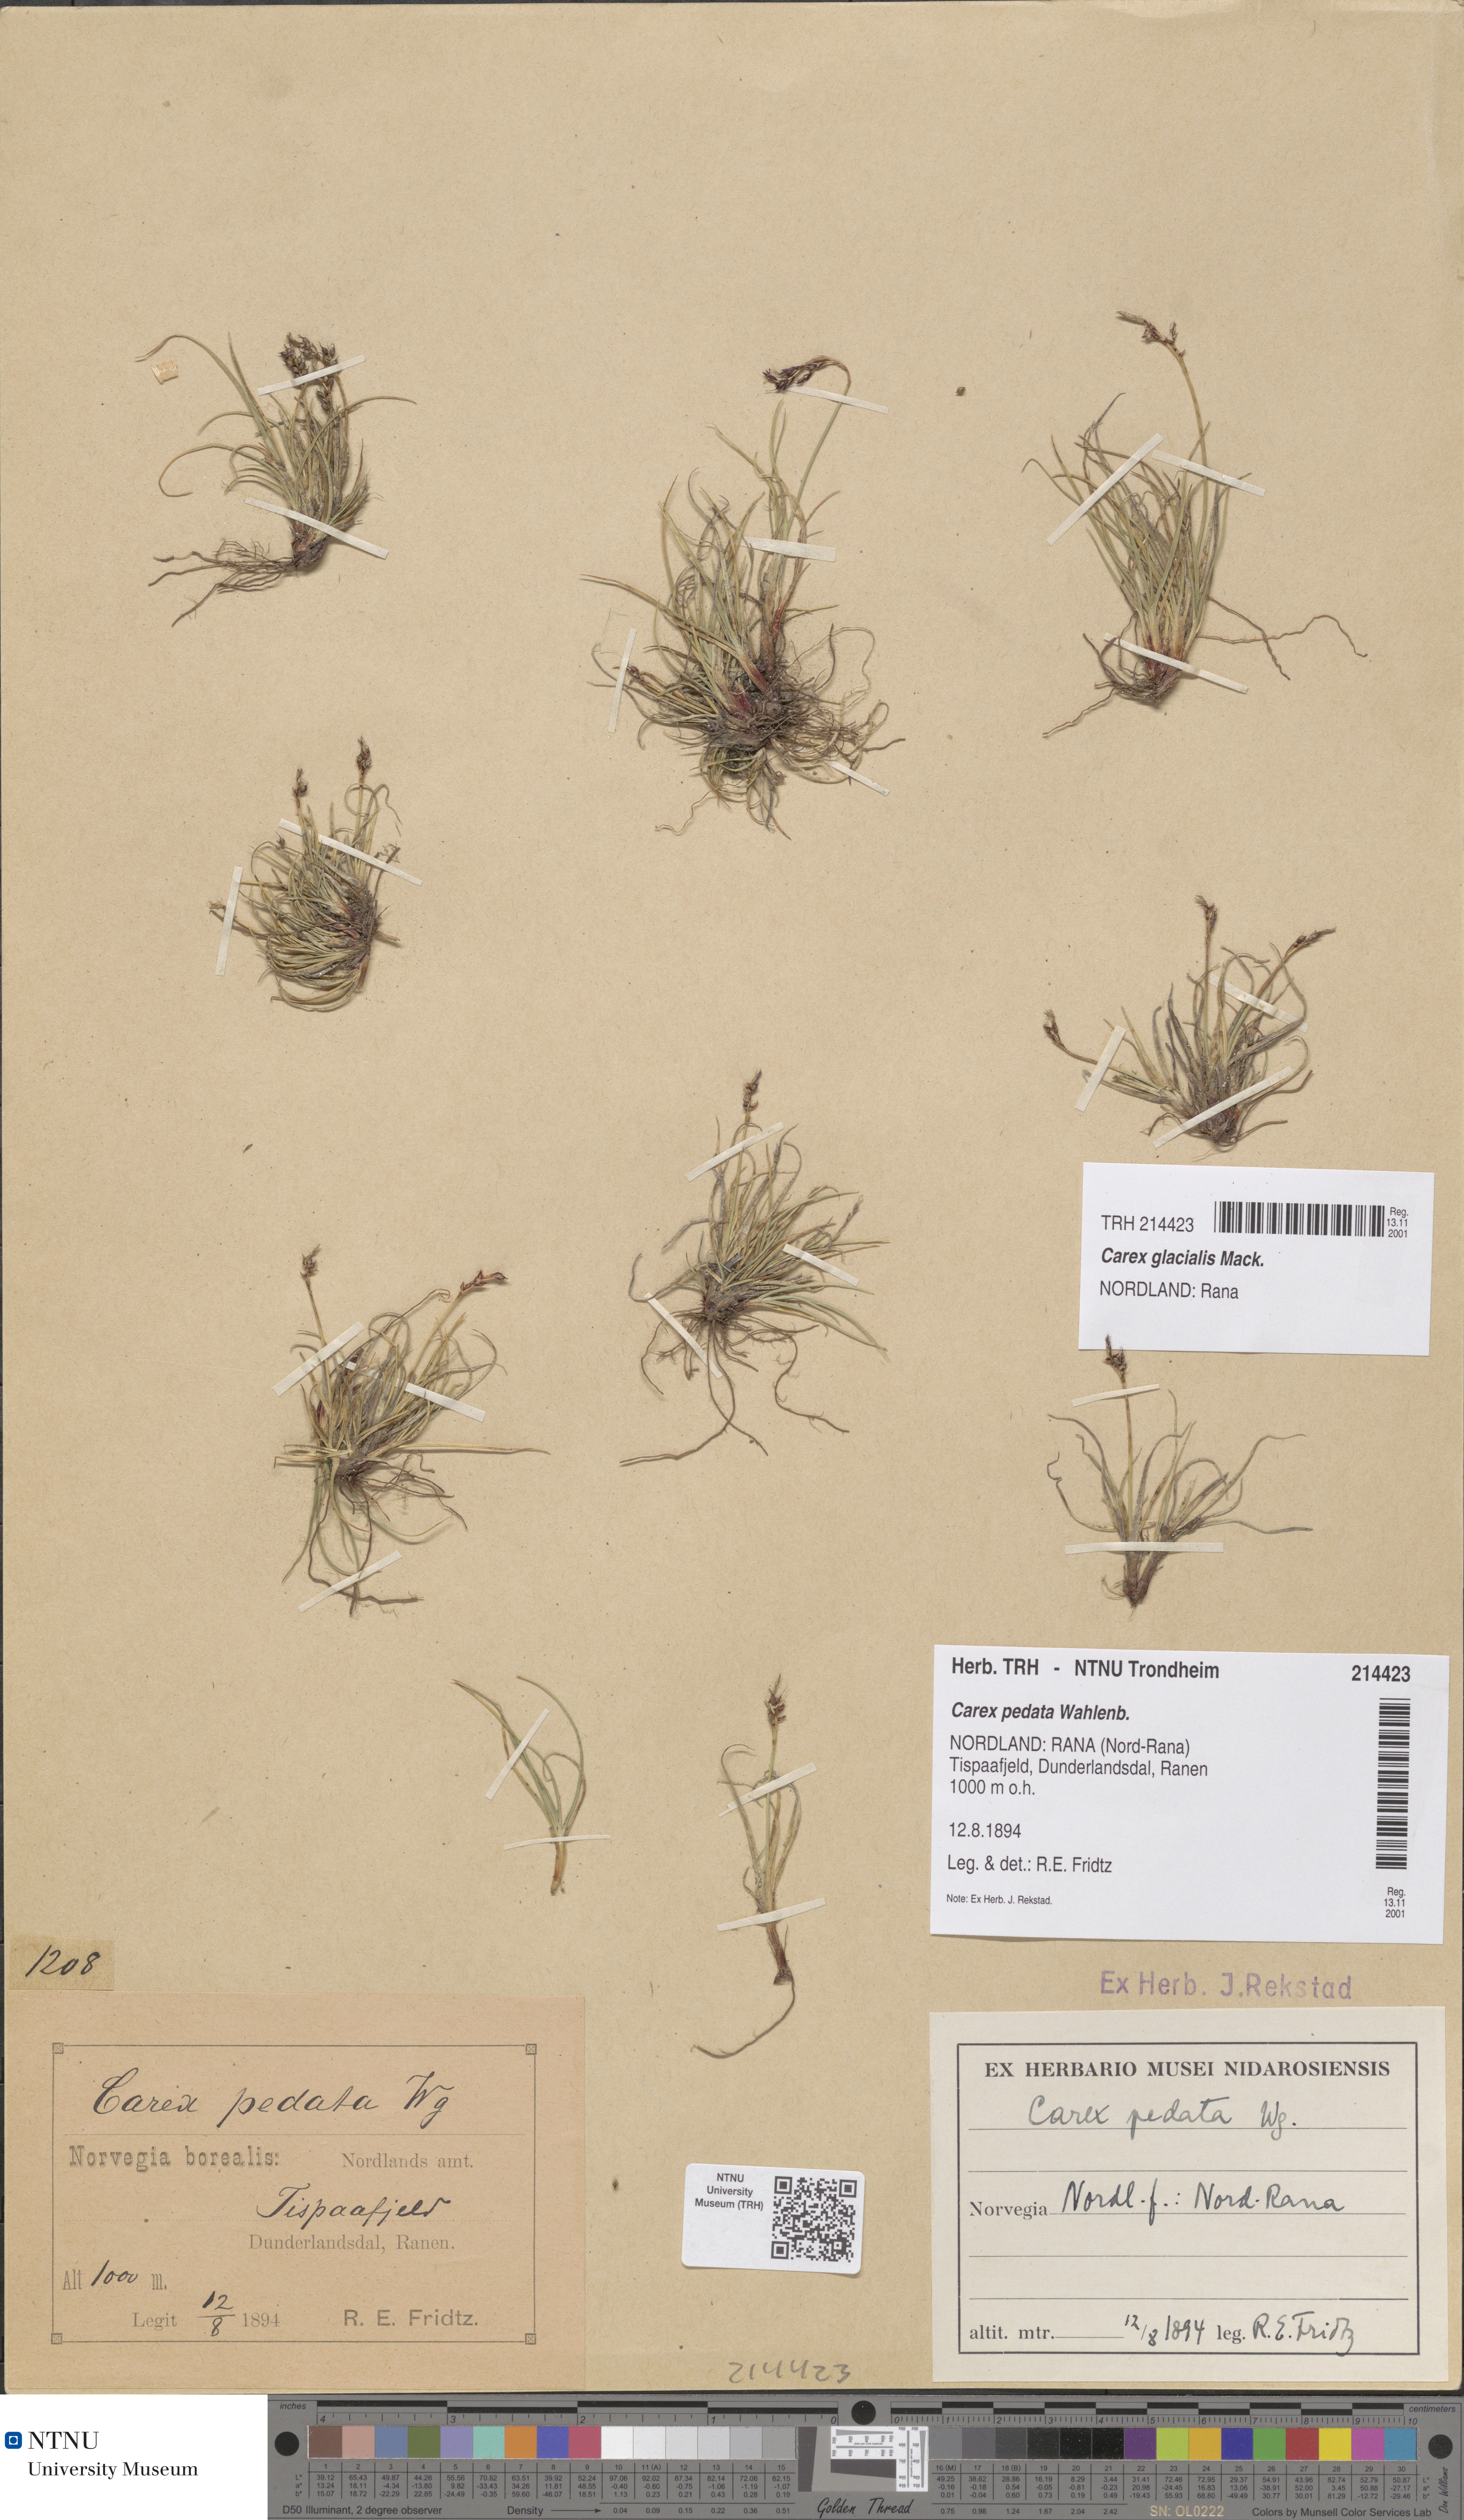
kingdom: Plantae
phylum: Tracheophyta
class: Liliopsida
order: Poales
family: Cyperaceae
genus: Carex
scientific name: Carex glacialis
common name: Newfoundland sedge
